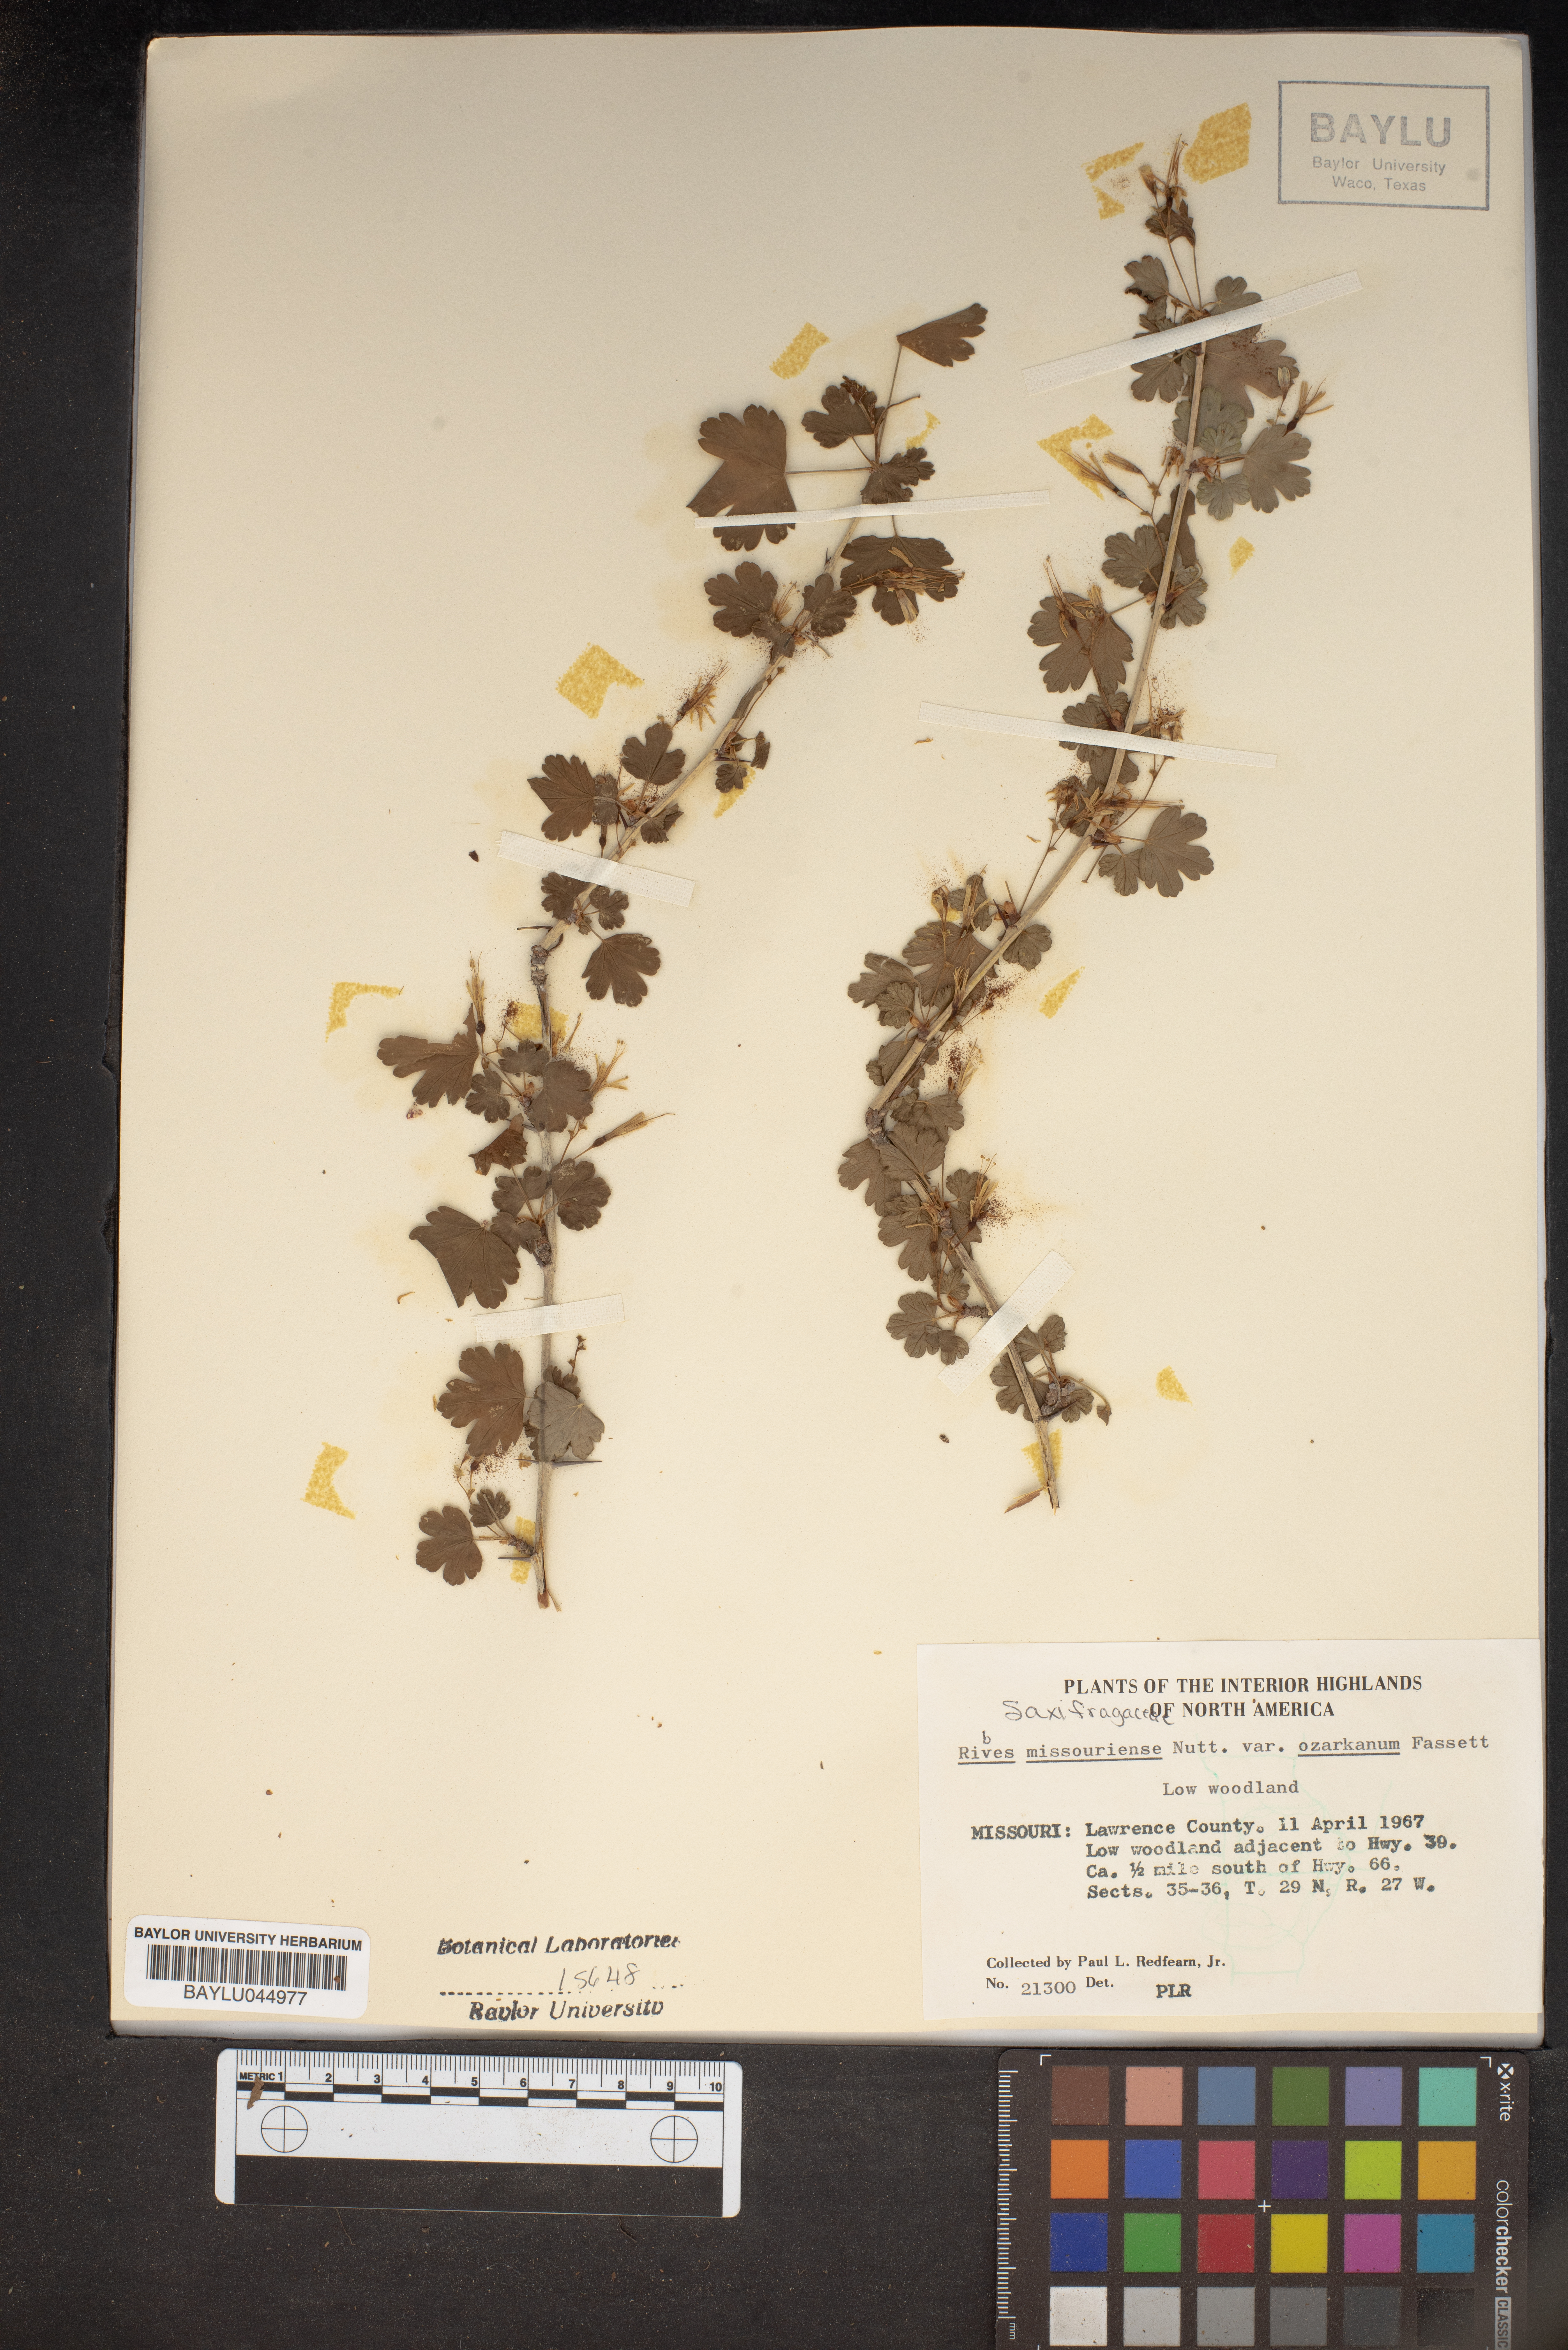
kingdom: Plantae
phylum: Tracheophyta
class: Magnoliopsida
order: Saxifragales
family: Grossulariaceae
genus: Ribes
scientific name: Ribes missouriense
